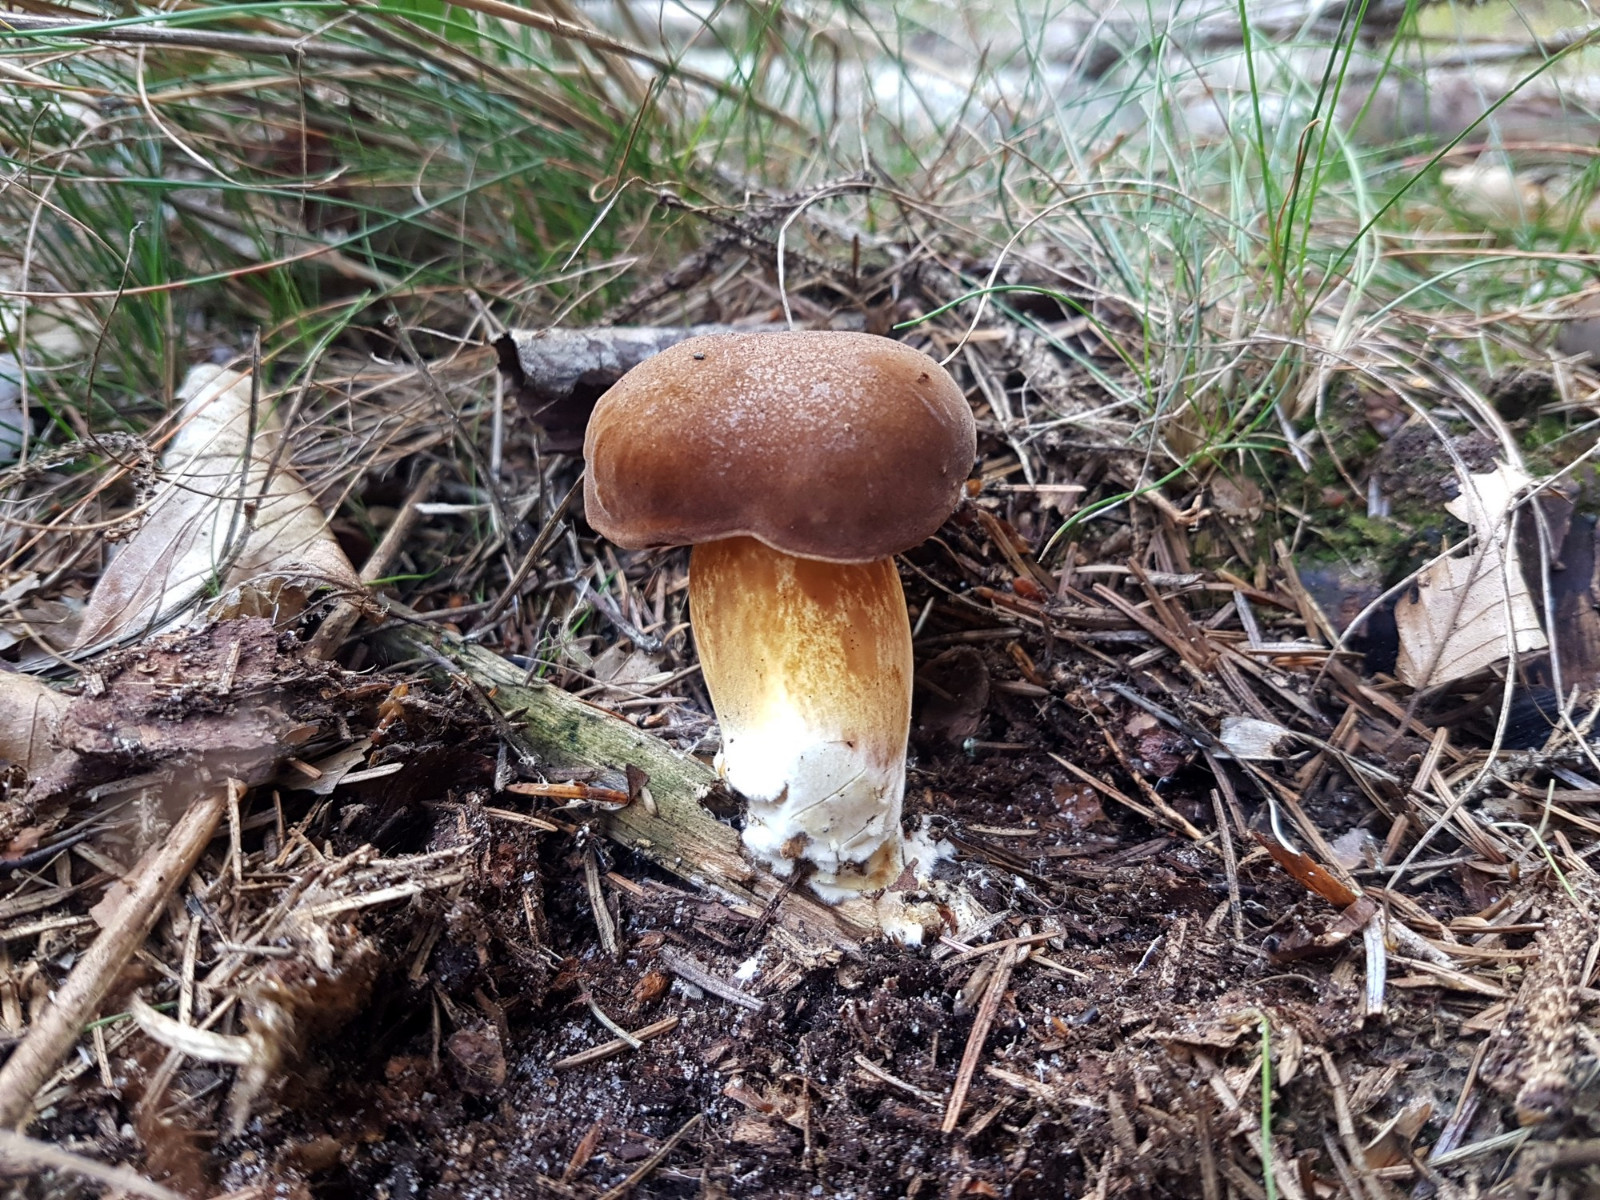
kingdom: Fungi
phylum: Basidiomycota
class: Agaricomycetes
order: Boletales
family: Boletaceae
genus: Imleria
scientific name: Imleria badia
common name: brunstokket rørhat
